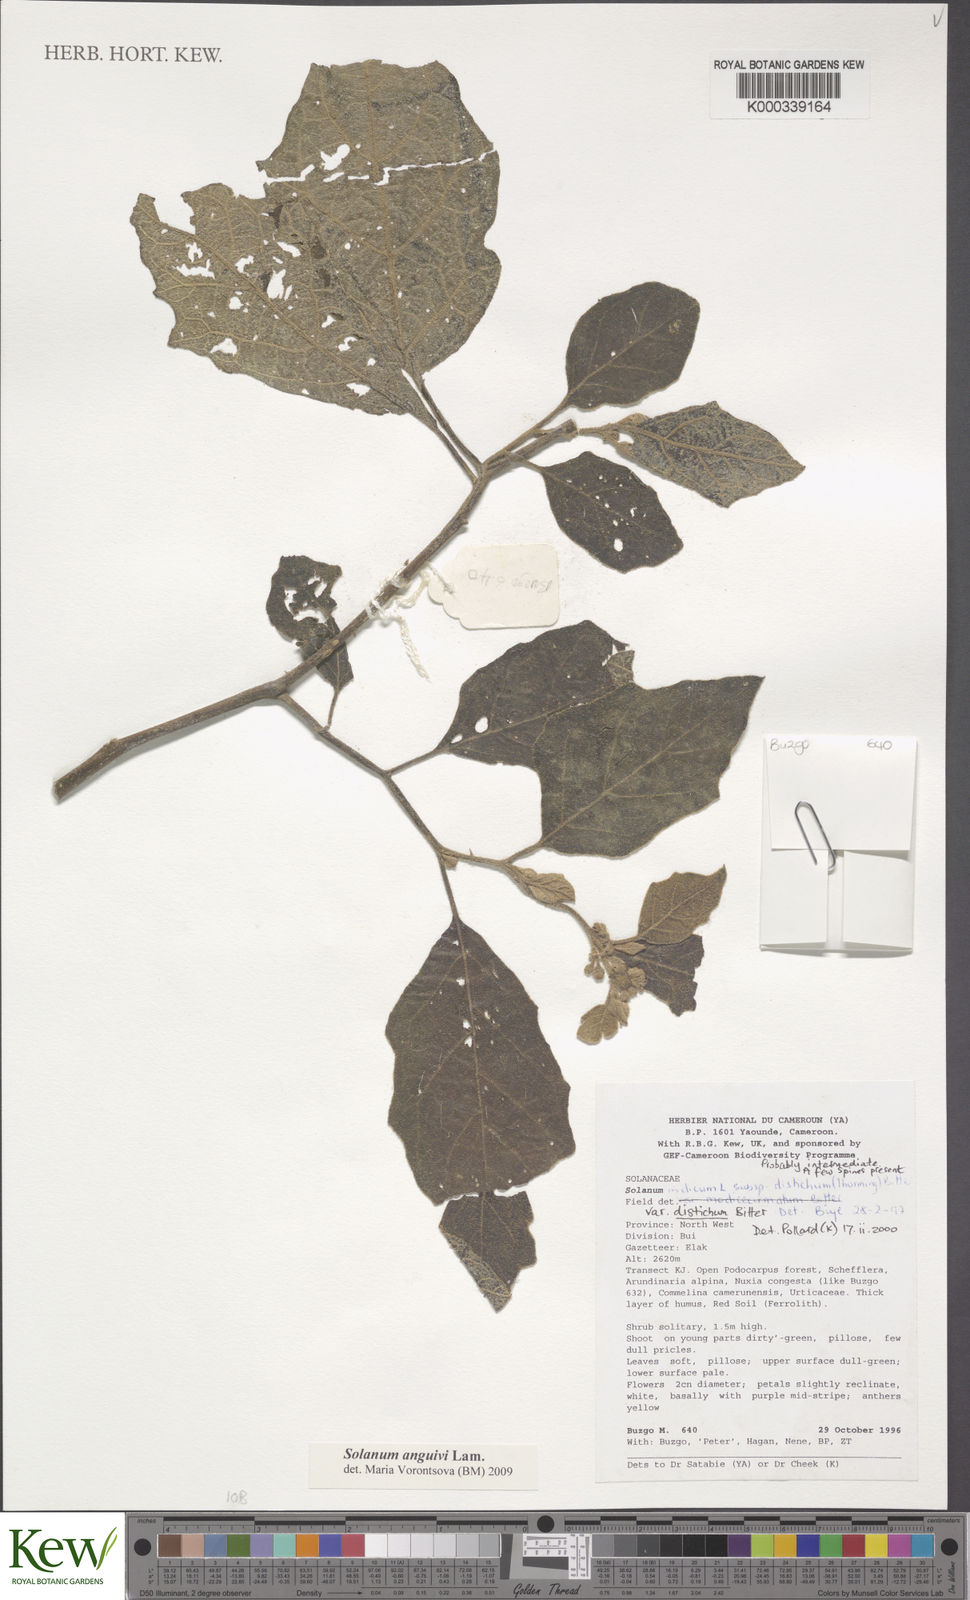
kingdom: Plantae
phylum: Tracheophyta
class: Magnoliopsida
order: Solanales
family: Solanaceae
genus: Solanum
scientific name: Solanum anguivi
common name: Forest bitterberry
